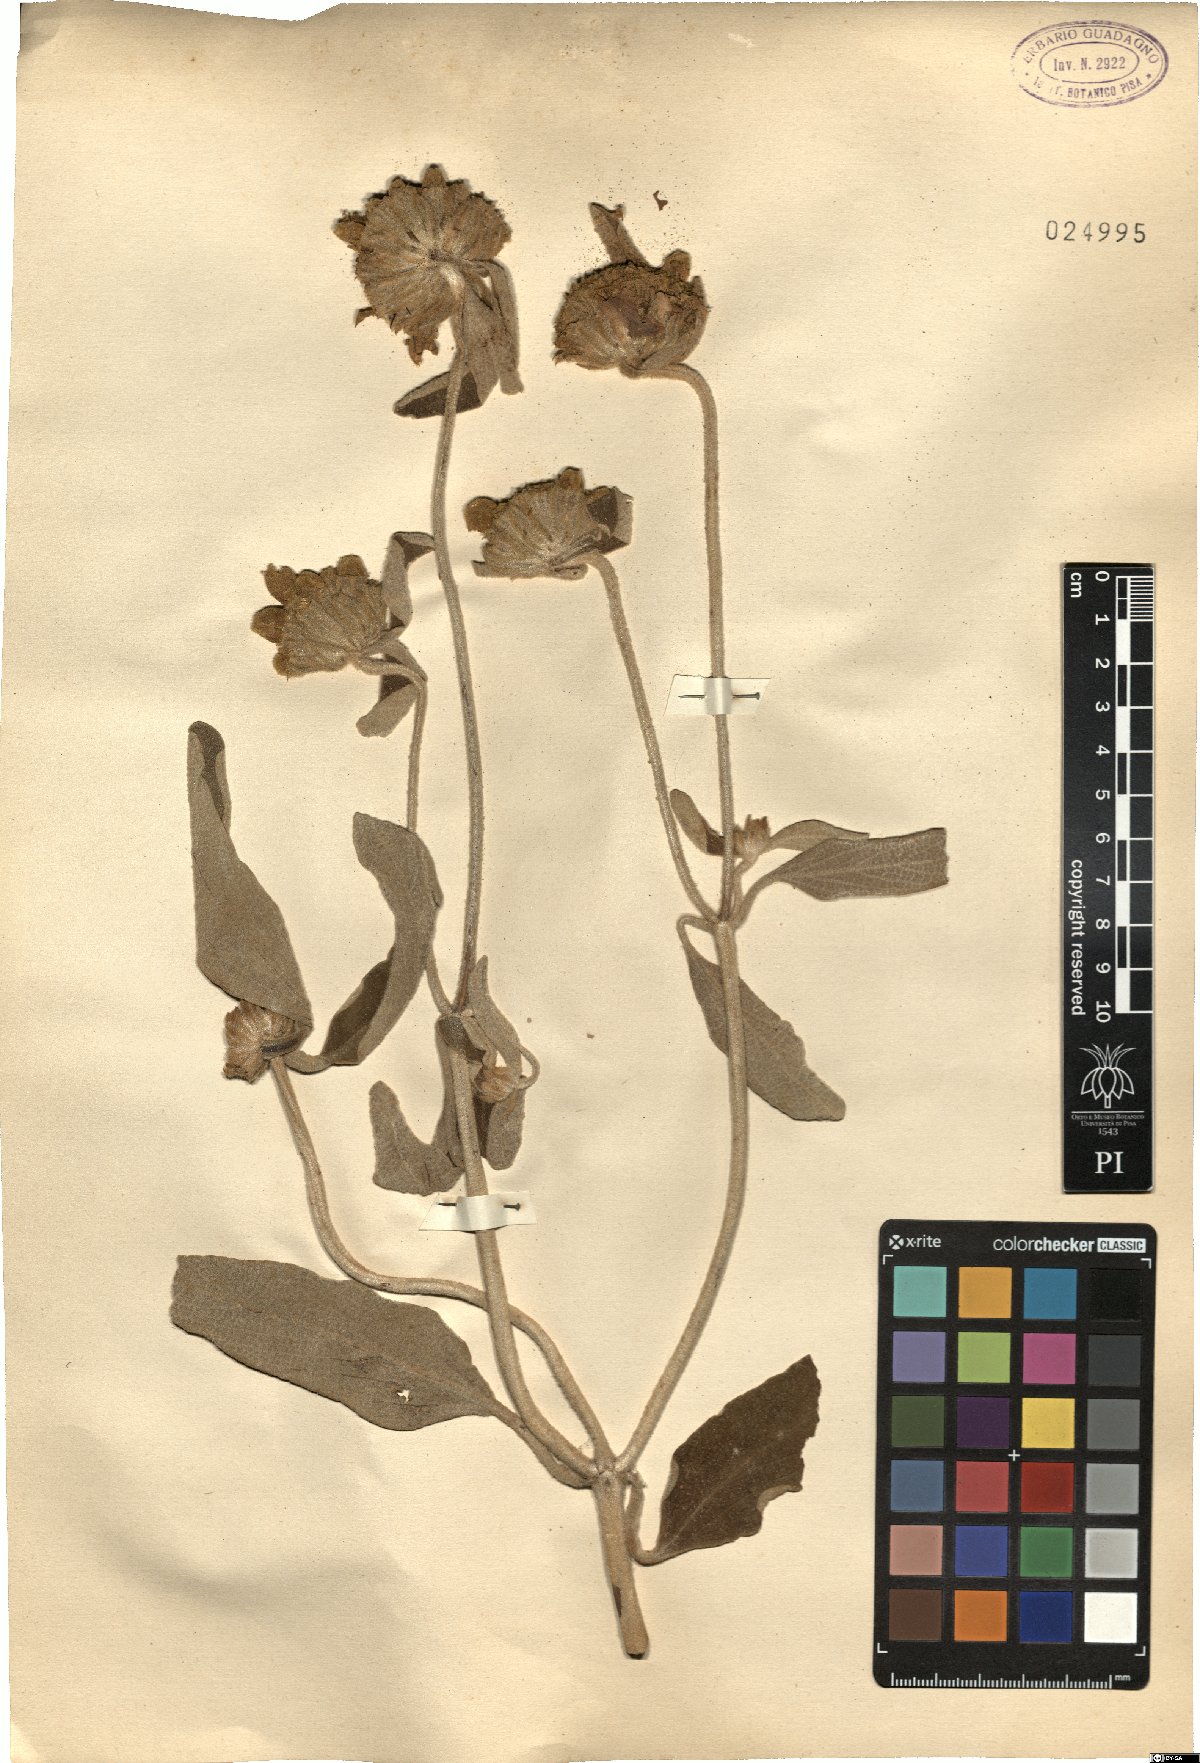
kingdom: Plantae
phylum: Tracheophyta
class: Magnoliopsida
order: Lamiales
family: Lamiaceae
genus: Phlomis
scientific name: Phlomis
